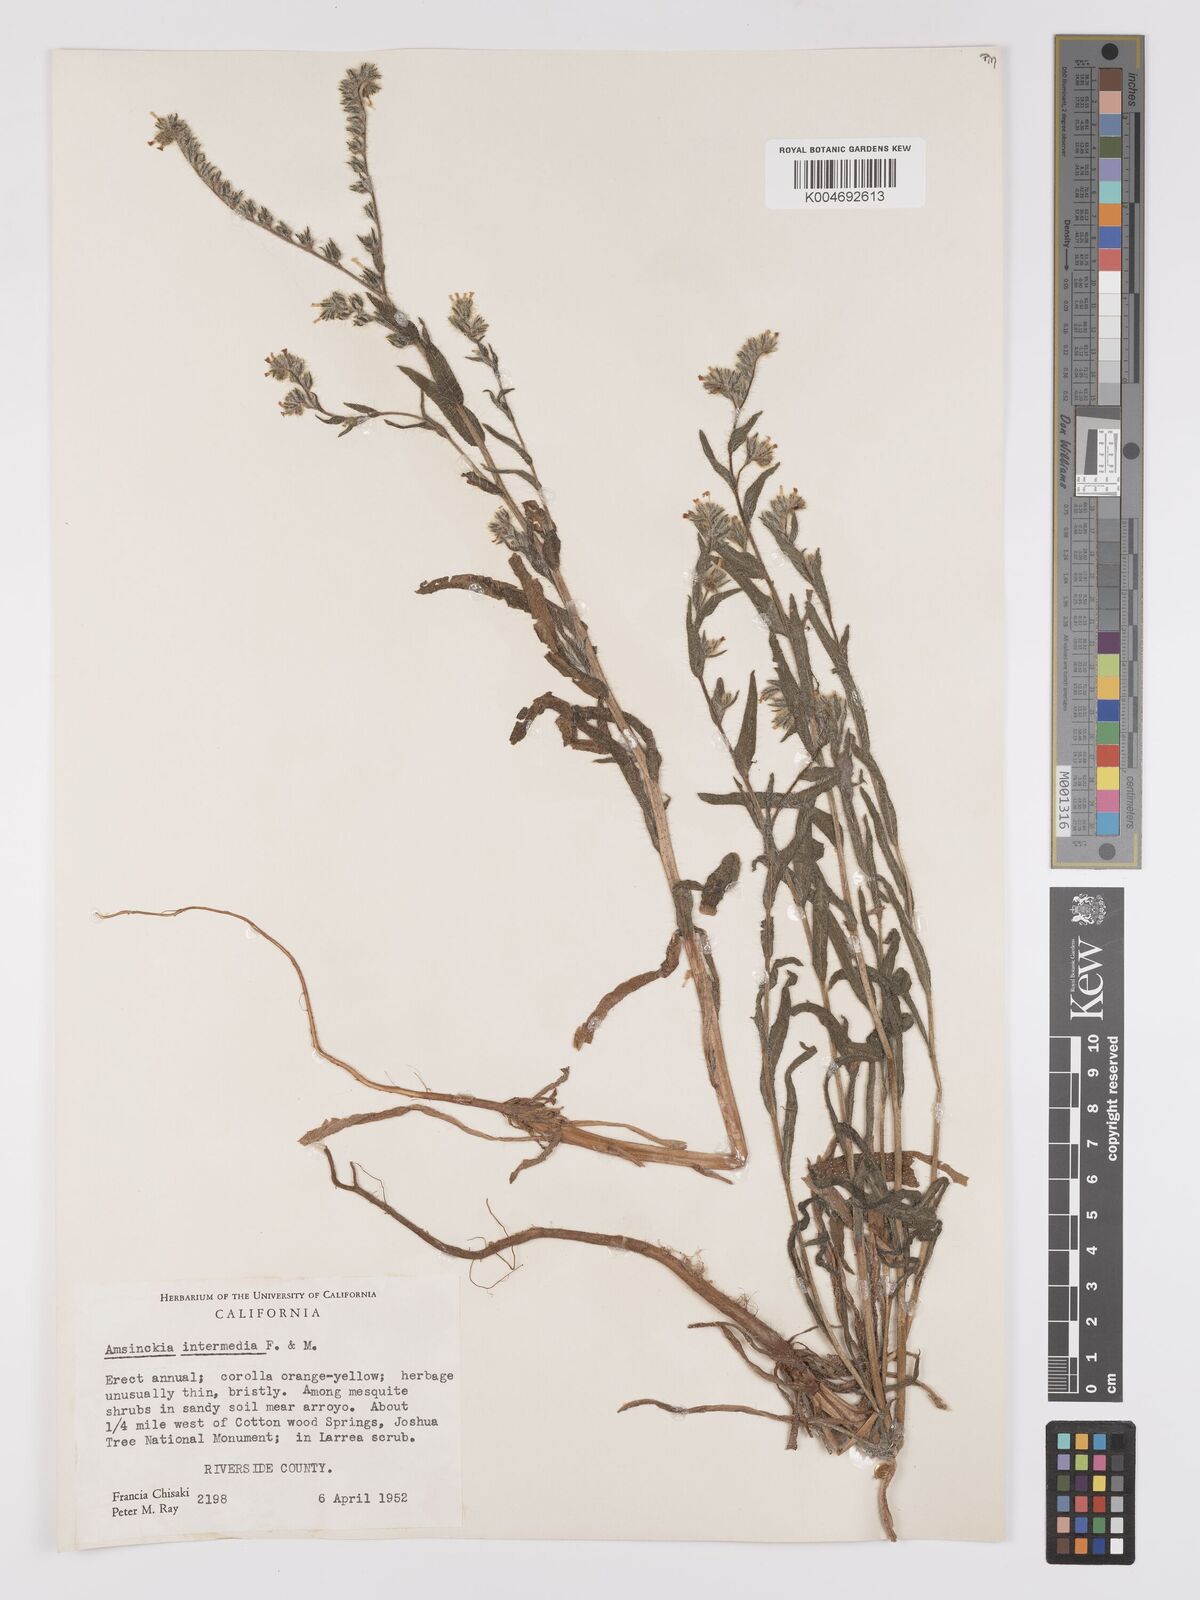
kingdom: Plantae
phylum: Tracheophyta
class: Magnoliopsida
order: Boraginales
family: Boraginaceae
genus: Amsinckia
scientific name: Amsinckia menziesii
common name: Menzies' fiddleneck
